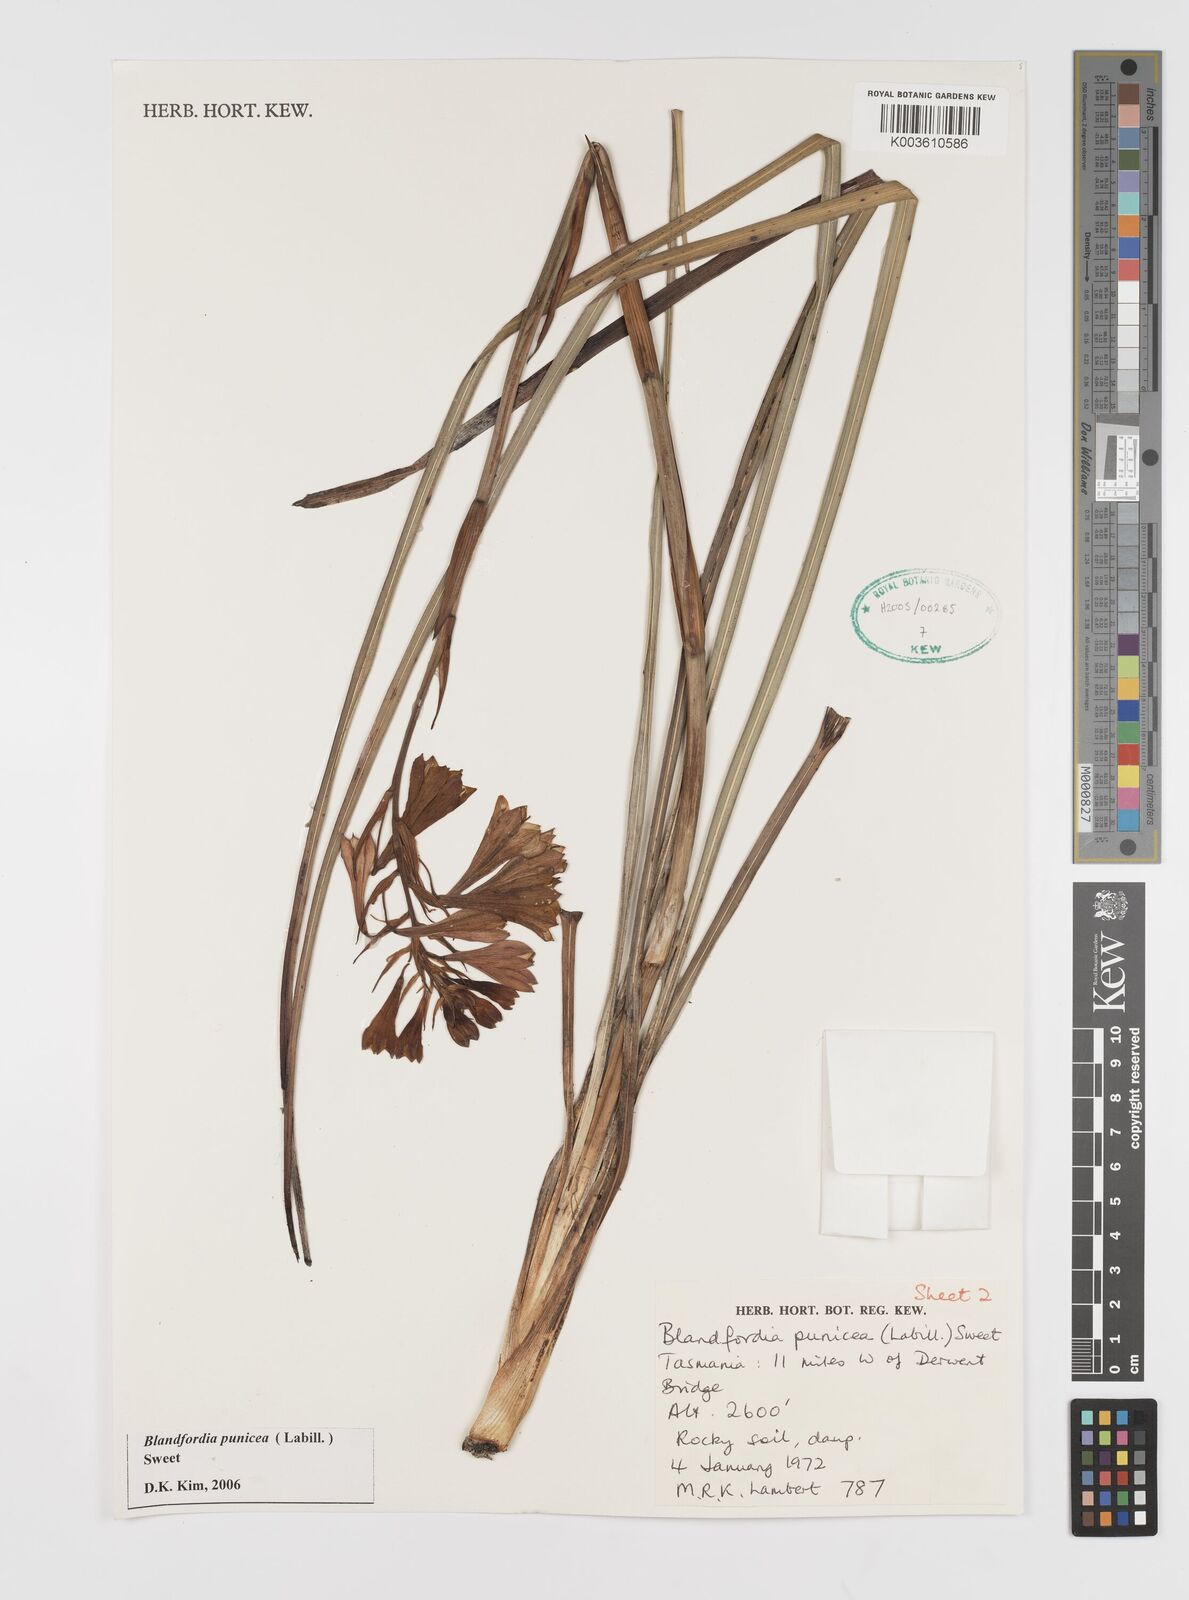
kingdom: Plantae
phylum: Tracheophyta
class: Liliopsida
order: Asparagales
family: Blandfordiaceae
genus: Blandfordia
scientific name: Blandfordia punicea
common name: Tasmanian christmas-bell
